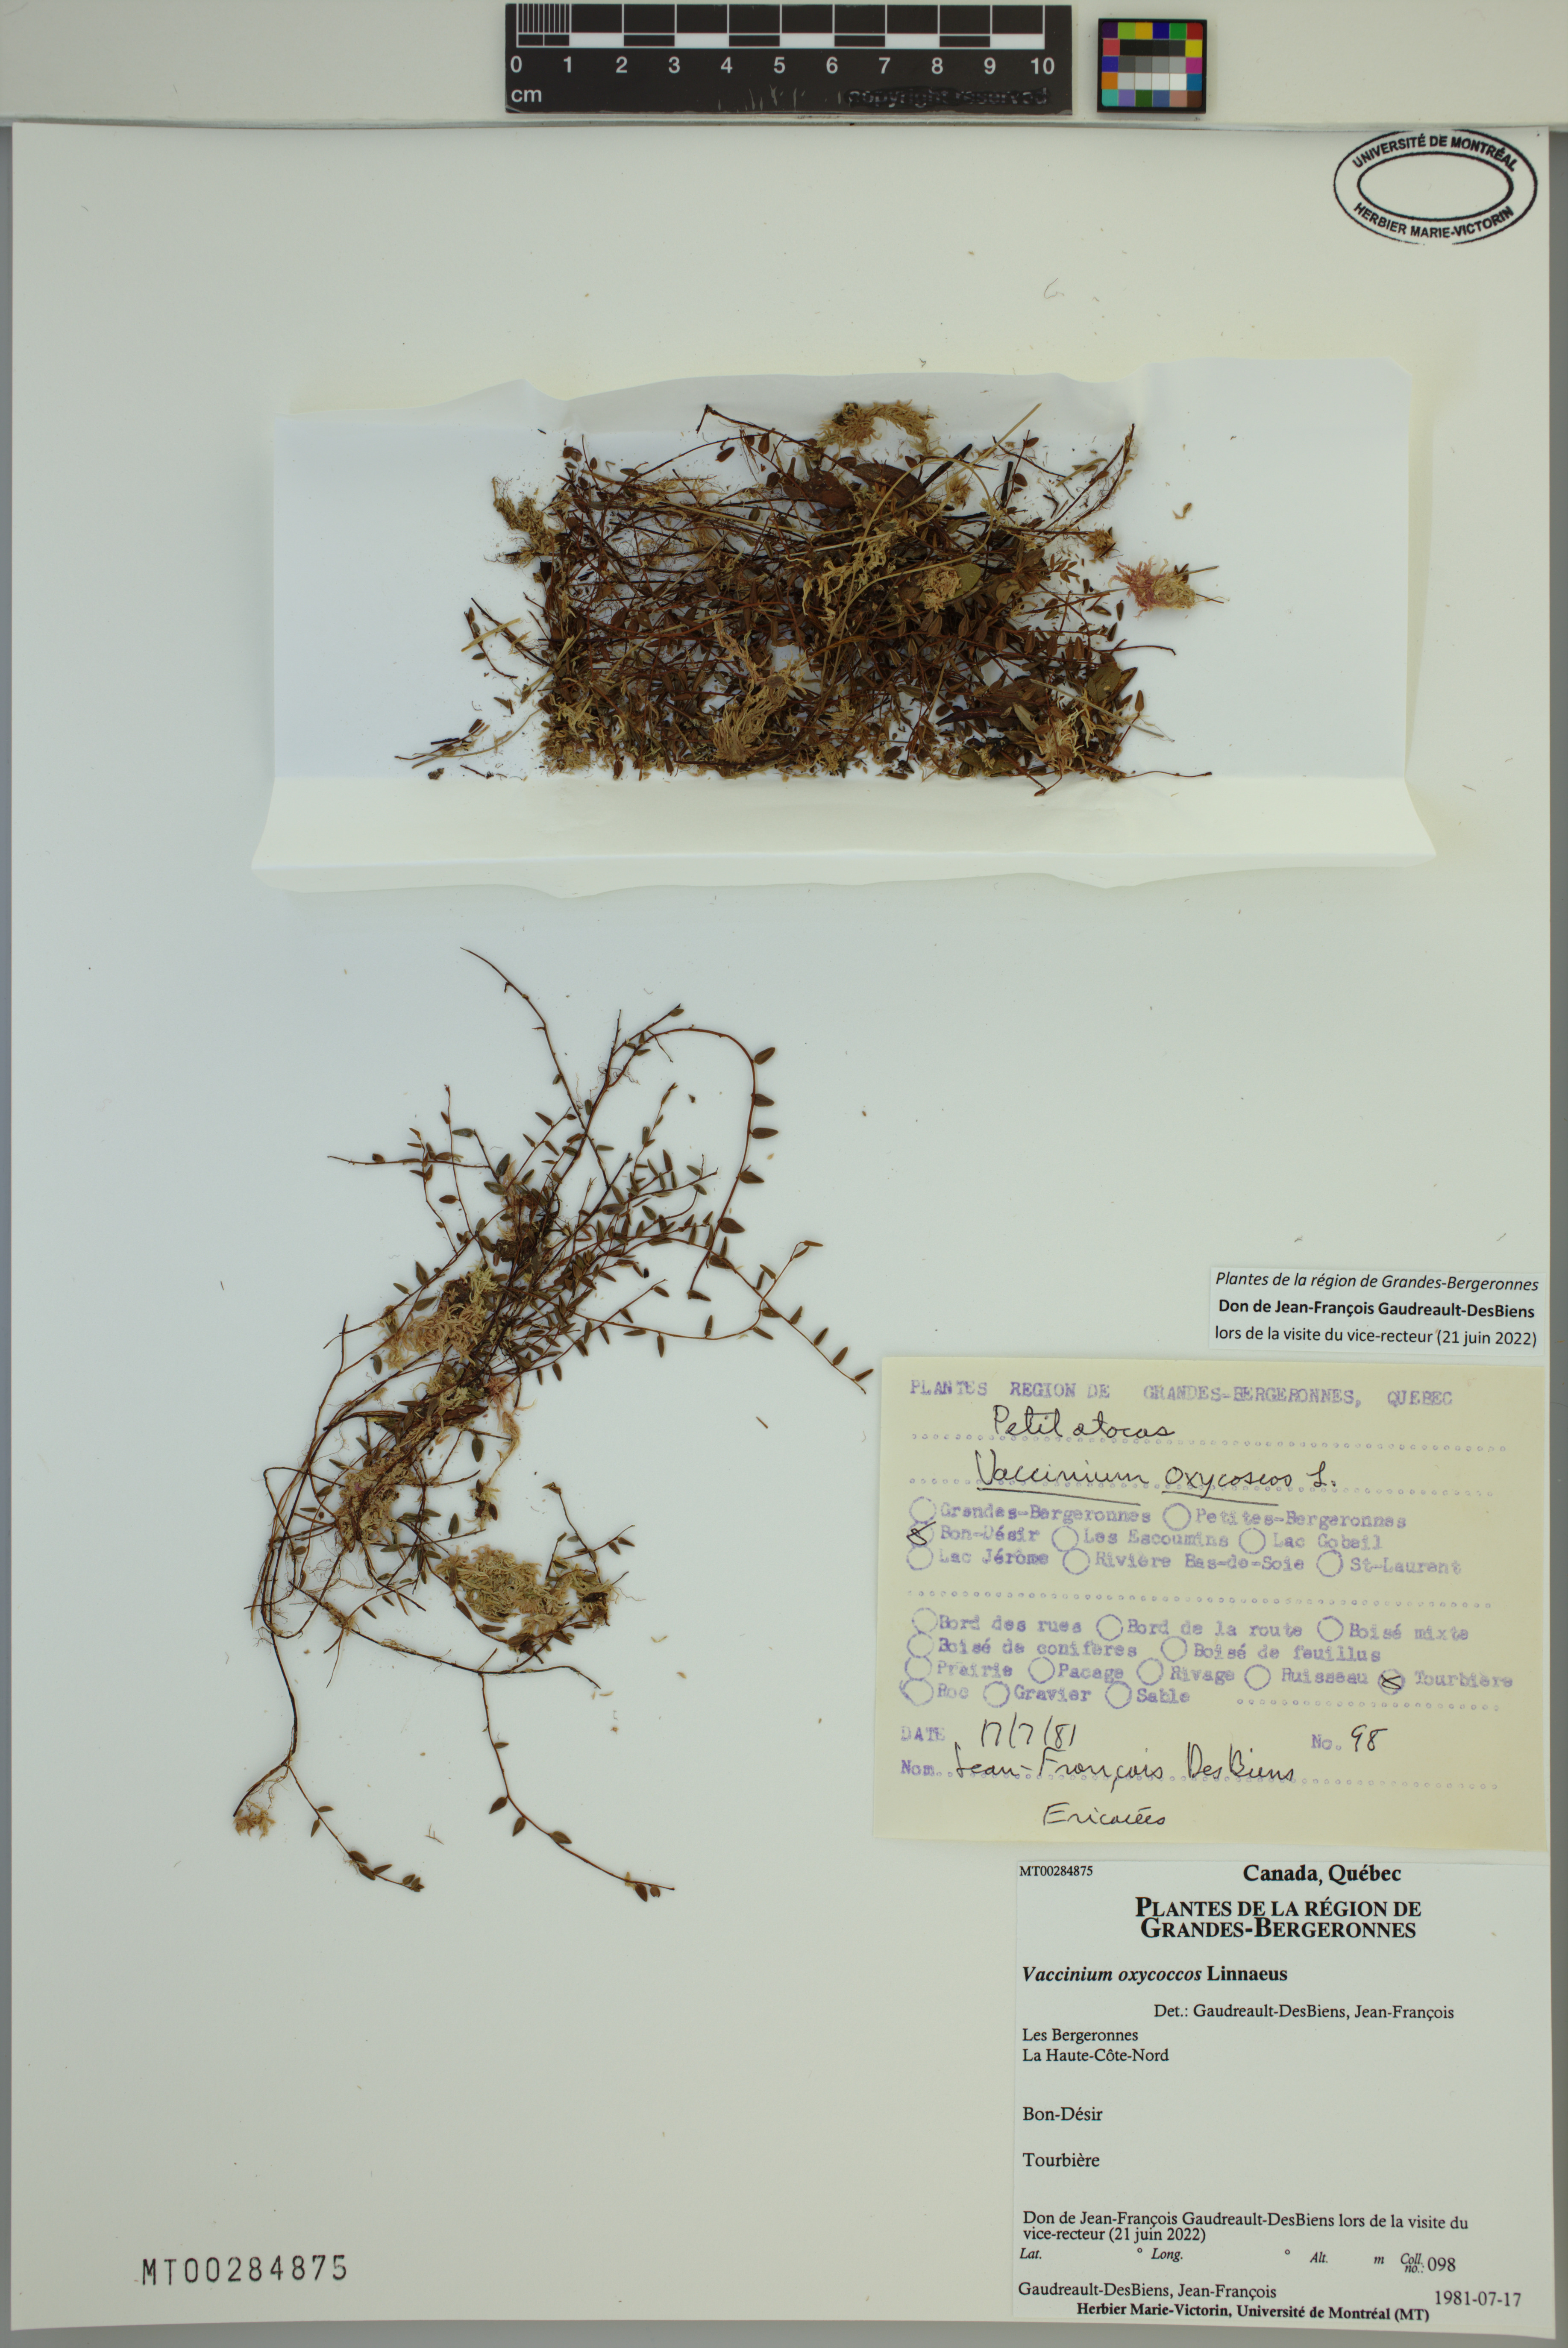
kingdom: Plantae
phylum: Tracheophyta
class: Magnoliopsida
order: Ericales
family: Ericaceae
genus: Vaccinium
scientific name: Vaccinium oxycoccos
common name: Cranberry
